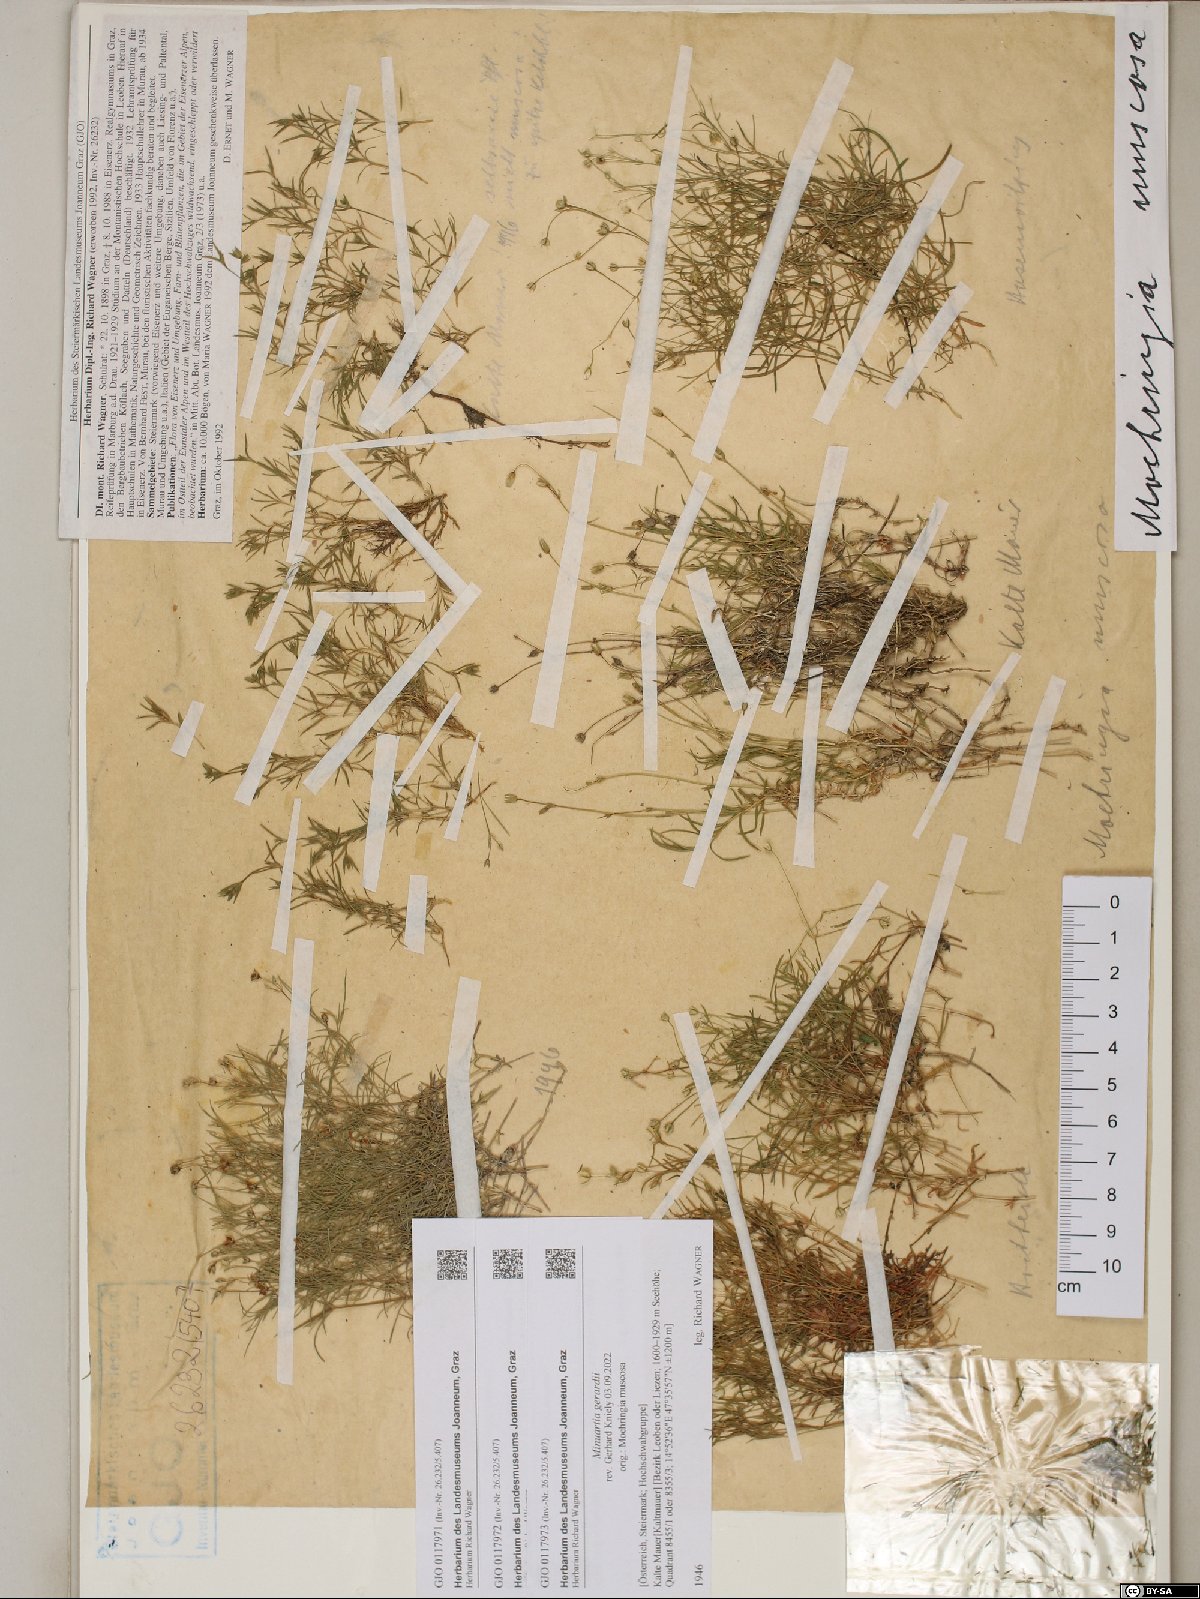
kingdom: Plantae
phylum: Tracheophyta
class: Magnoliopsida
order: Caryophyllales
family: Caryophyllaceae
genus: Moehringia
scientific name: Moehringia muscosa
